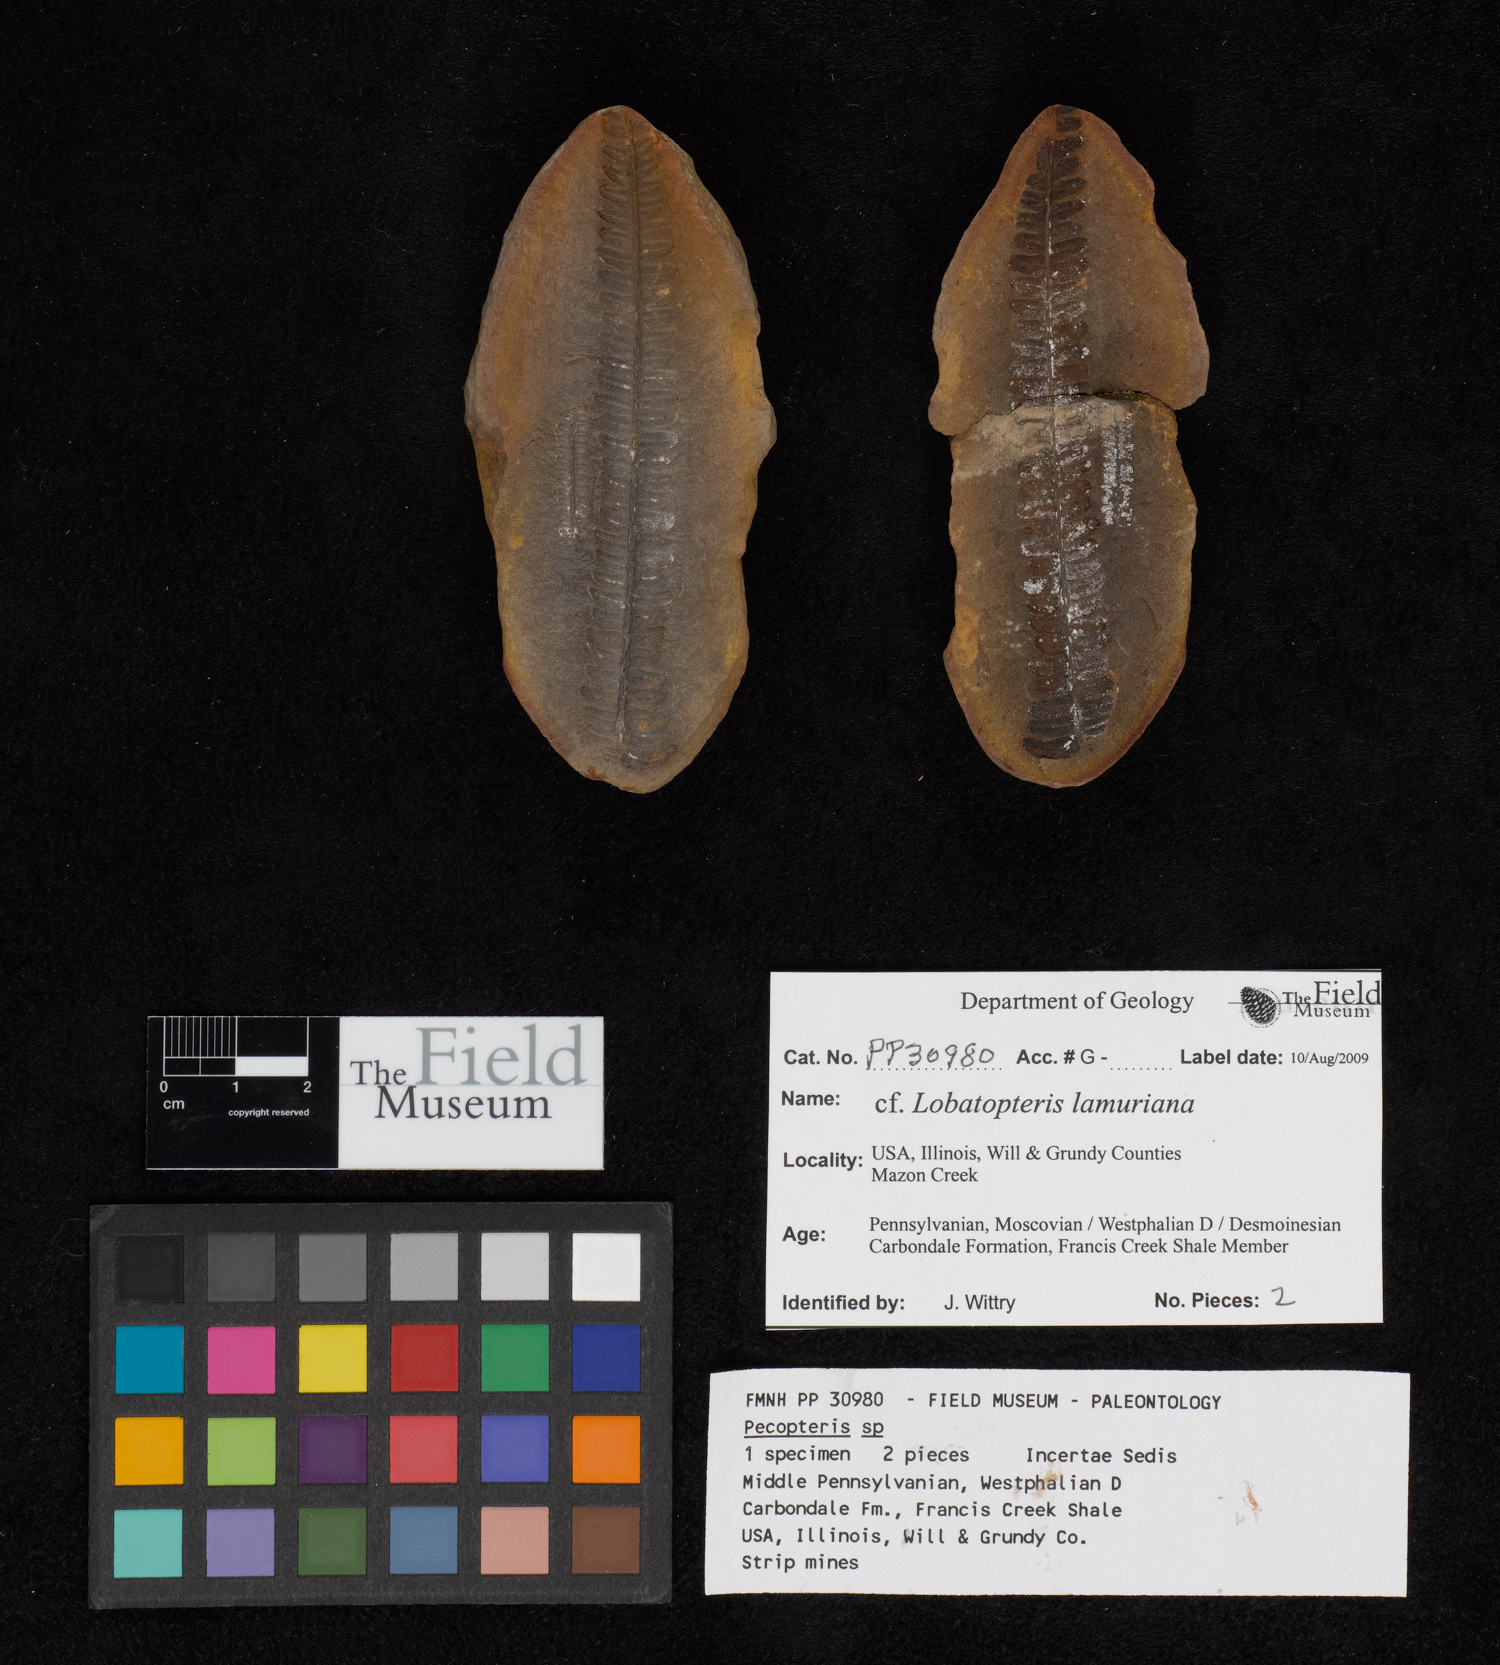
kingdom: Plantae
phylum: Tracheophyta
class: Polypodiopsida
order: Marattiales
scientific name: Marattiales
